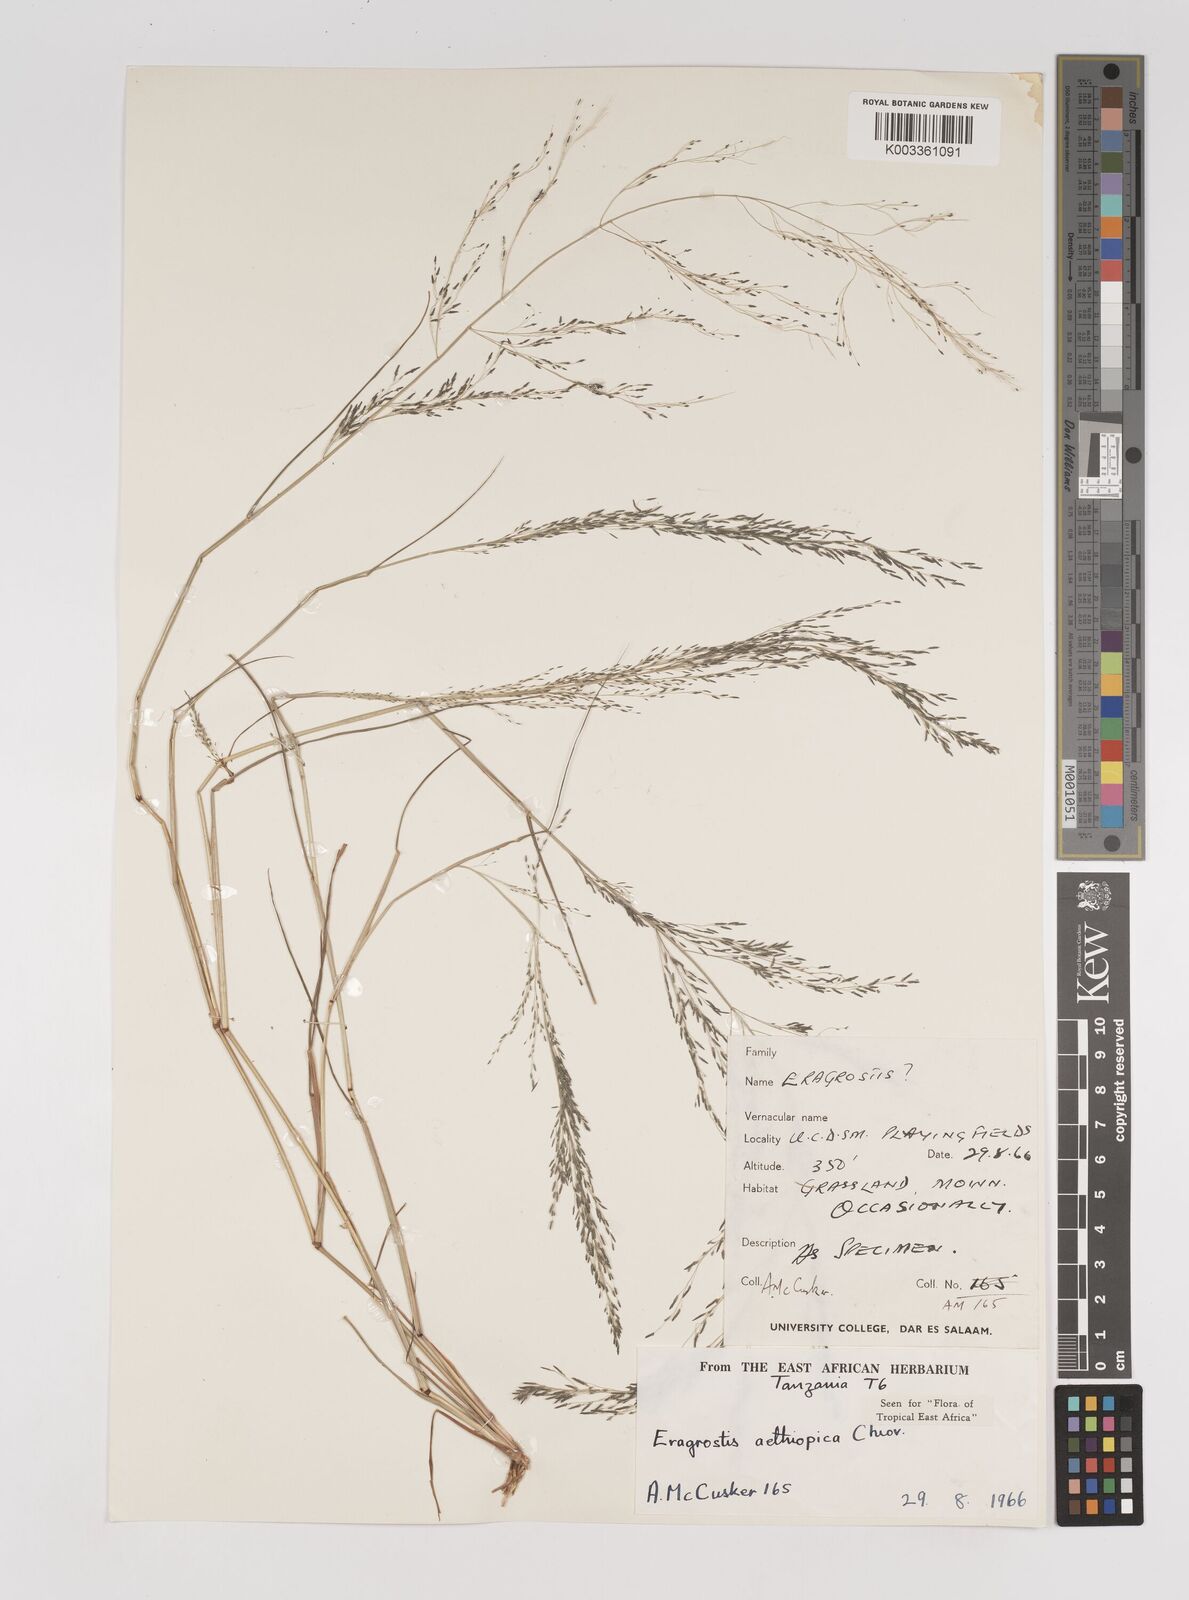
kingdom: Plantae
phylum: Tracheophyta
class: Liliopsida
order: Poales
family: Poaceae
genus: Eragrostis
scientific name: Eragrostis aethiopica
